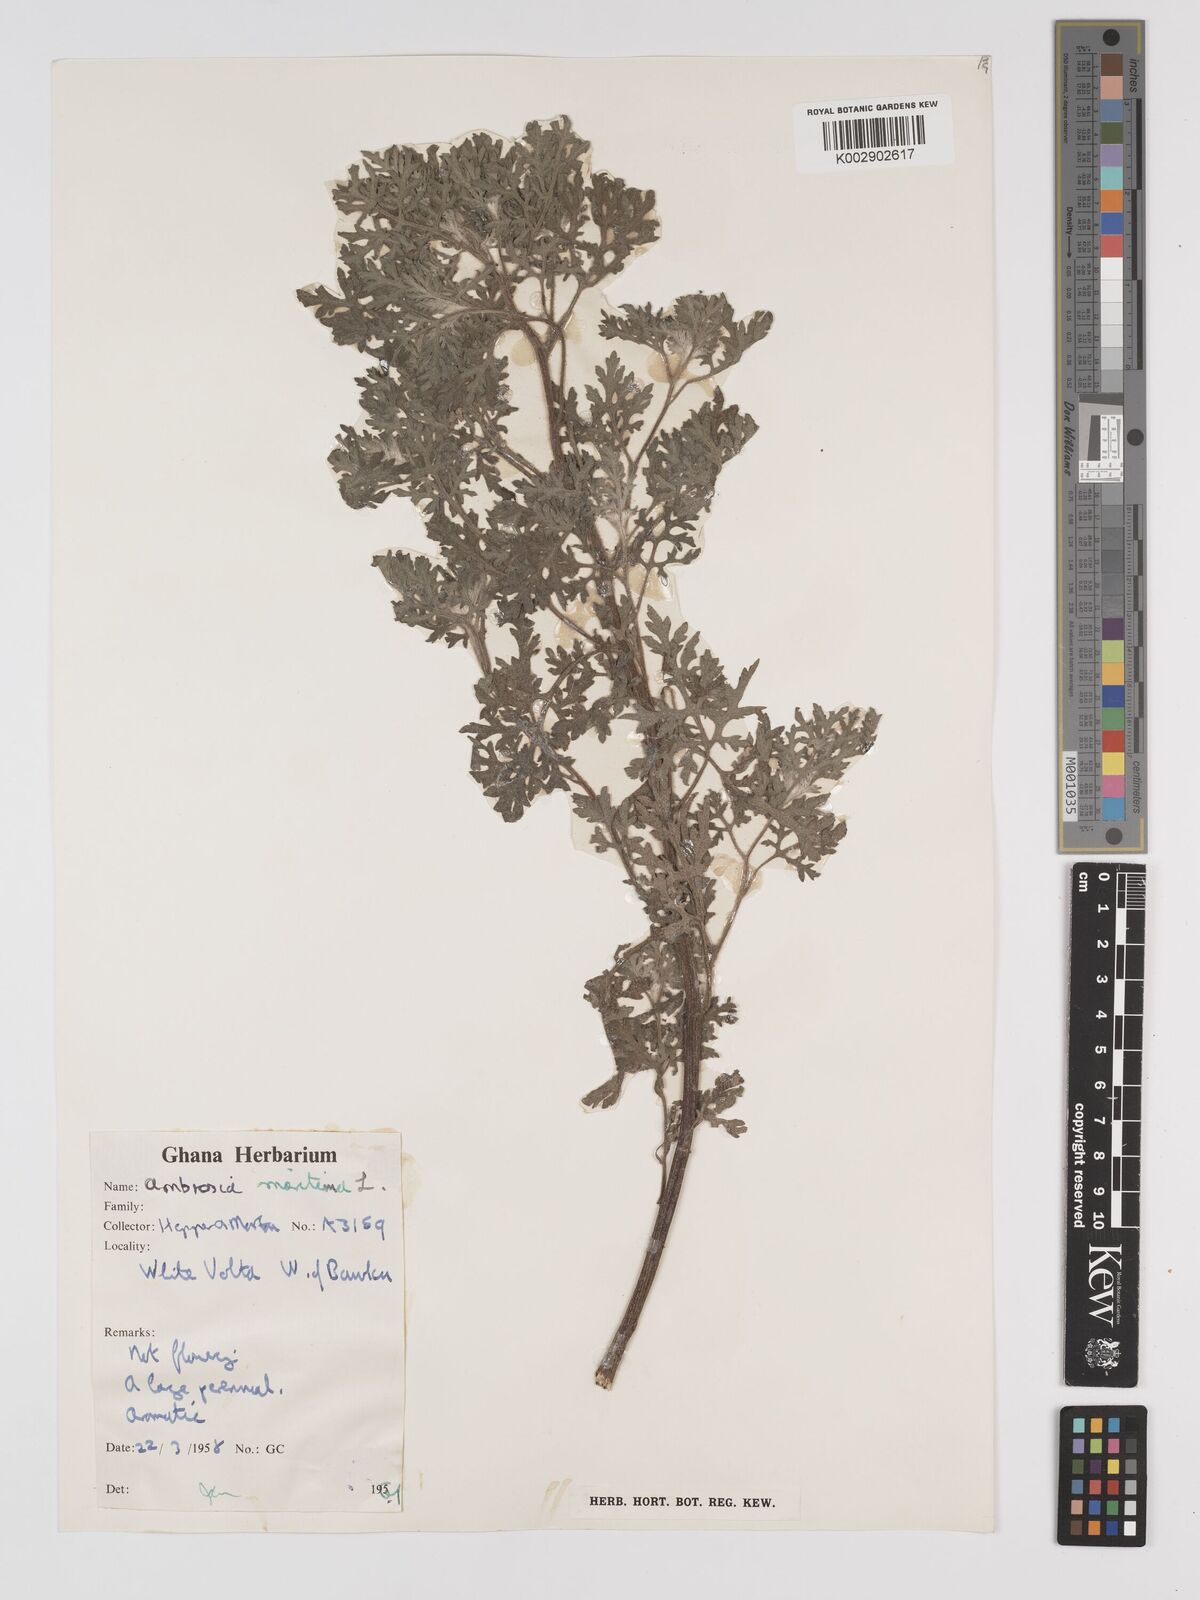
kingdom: Plantae
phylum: Tracheophyta
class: Magnoliopsida
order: Asterales
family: Asteraceae
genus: Ambrosia
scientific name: Ambrosia maritima
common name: Sea ambrosia
